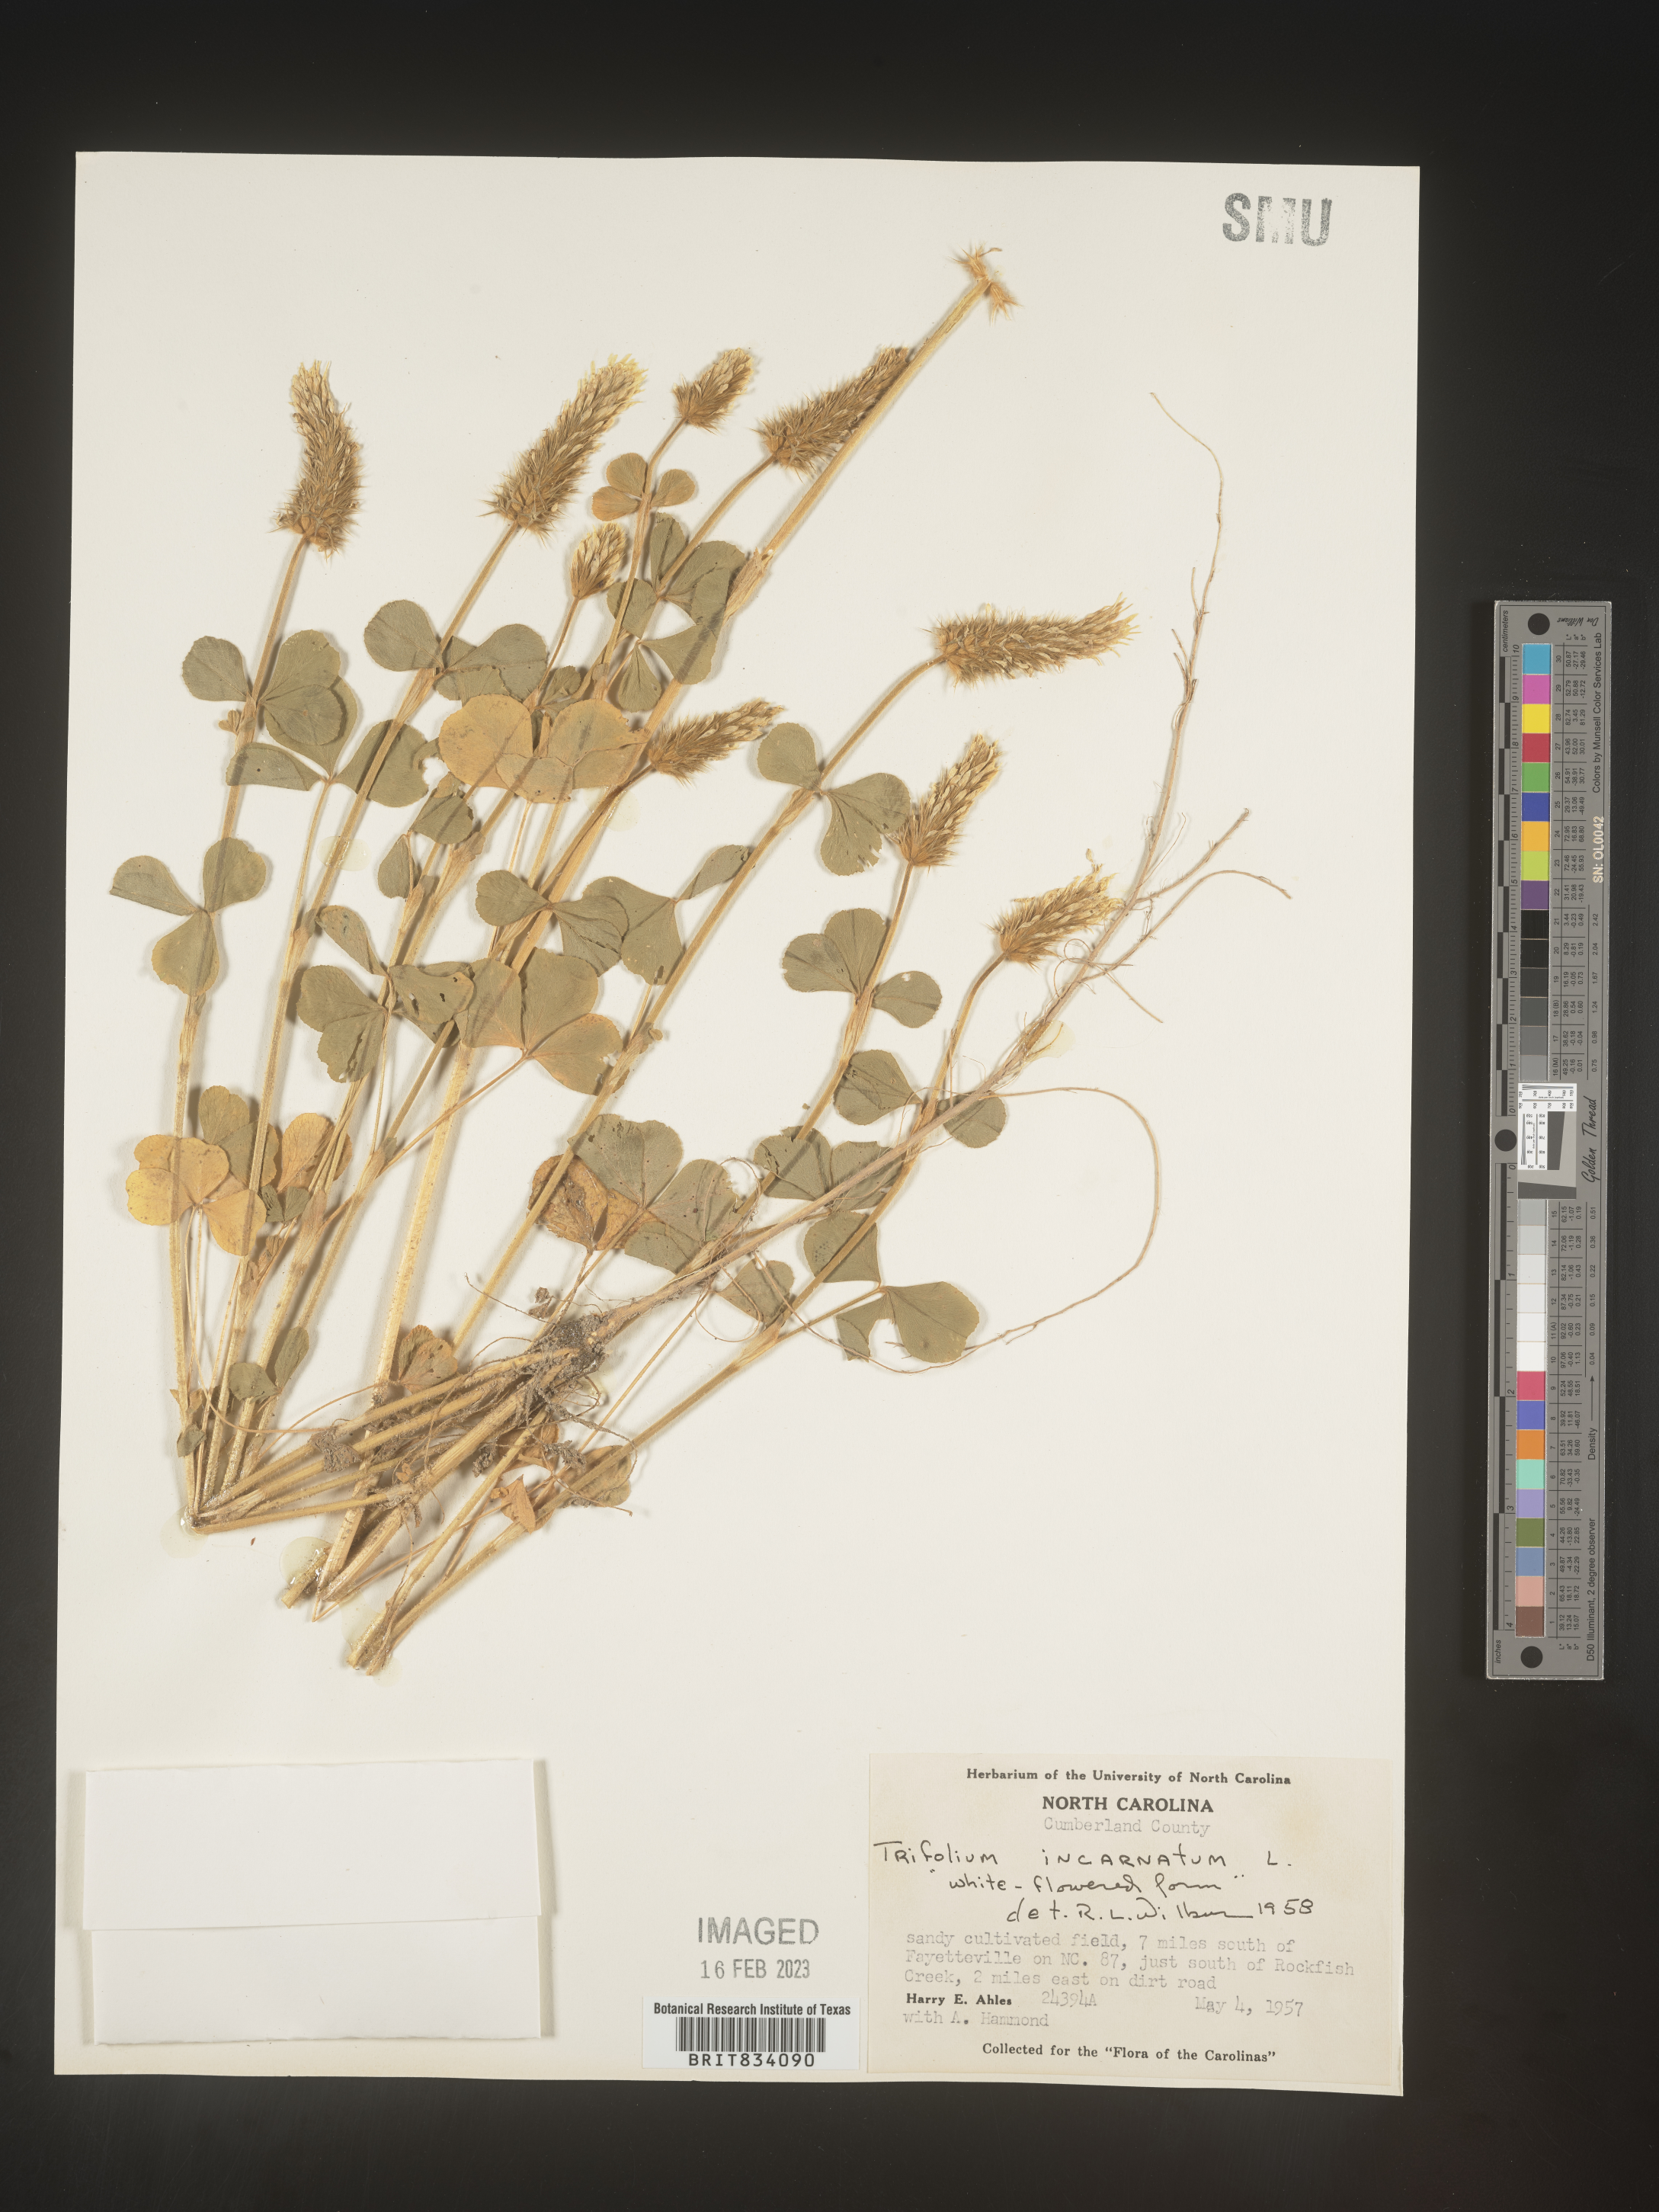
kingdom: Plantae
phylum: Tracheophyta
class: Magnoliopsida
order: Fabales
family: Fabaceae
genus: Trifolium
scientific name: Trifolium incarnatum
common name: Crimson clover
